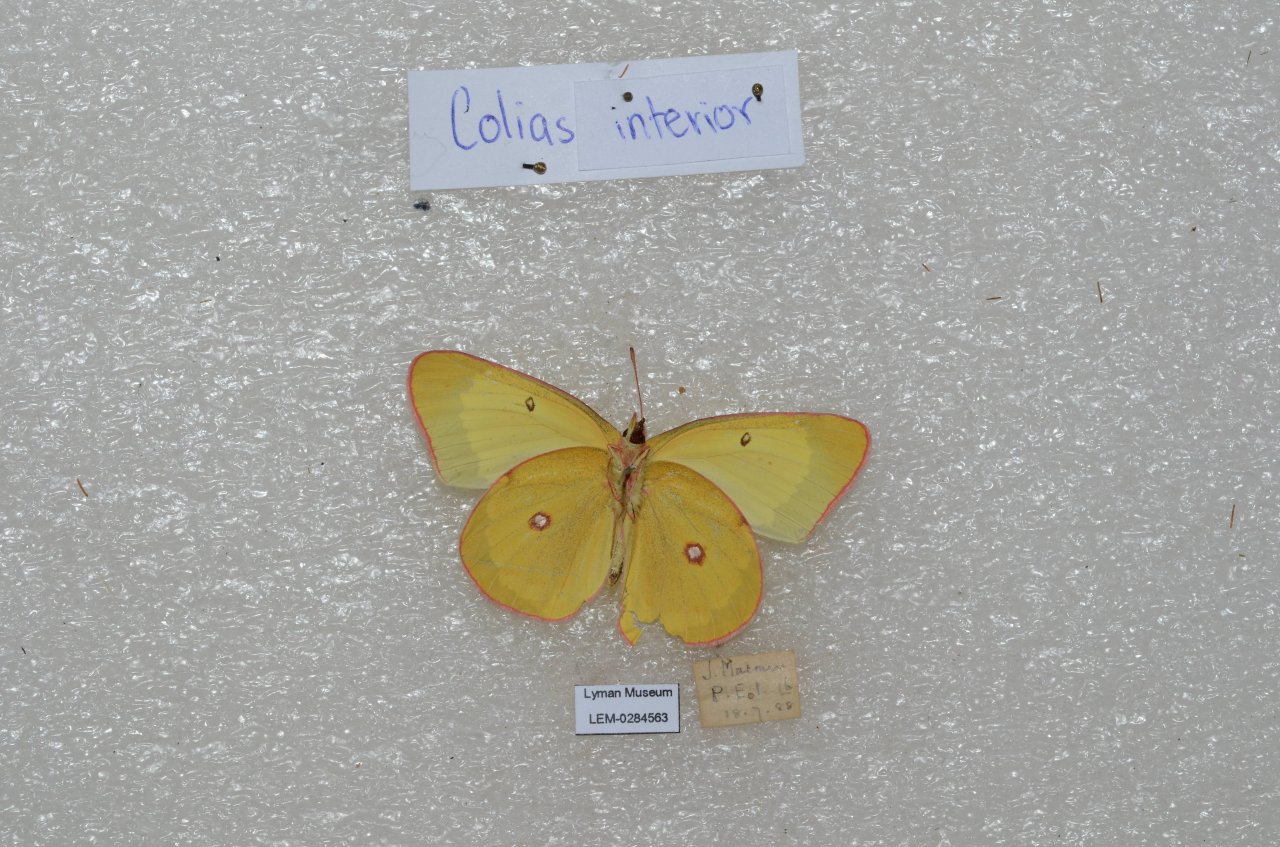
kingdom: Animalia
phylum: Arthropoda
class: Insecta
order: Lepidoptera
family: Pieridae
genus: Colias
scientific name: Colias interior
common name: Pink-edged Sulphur
